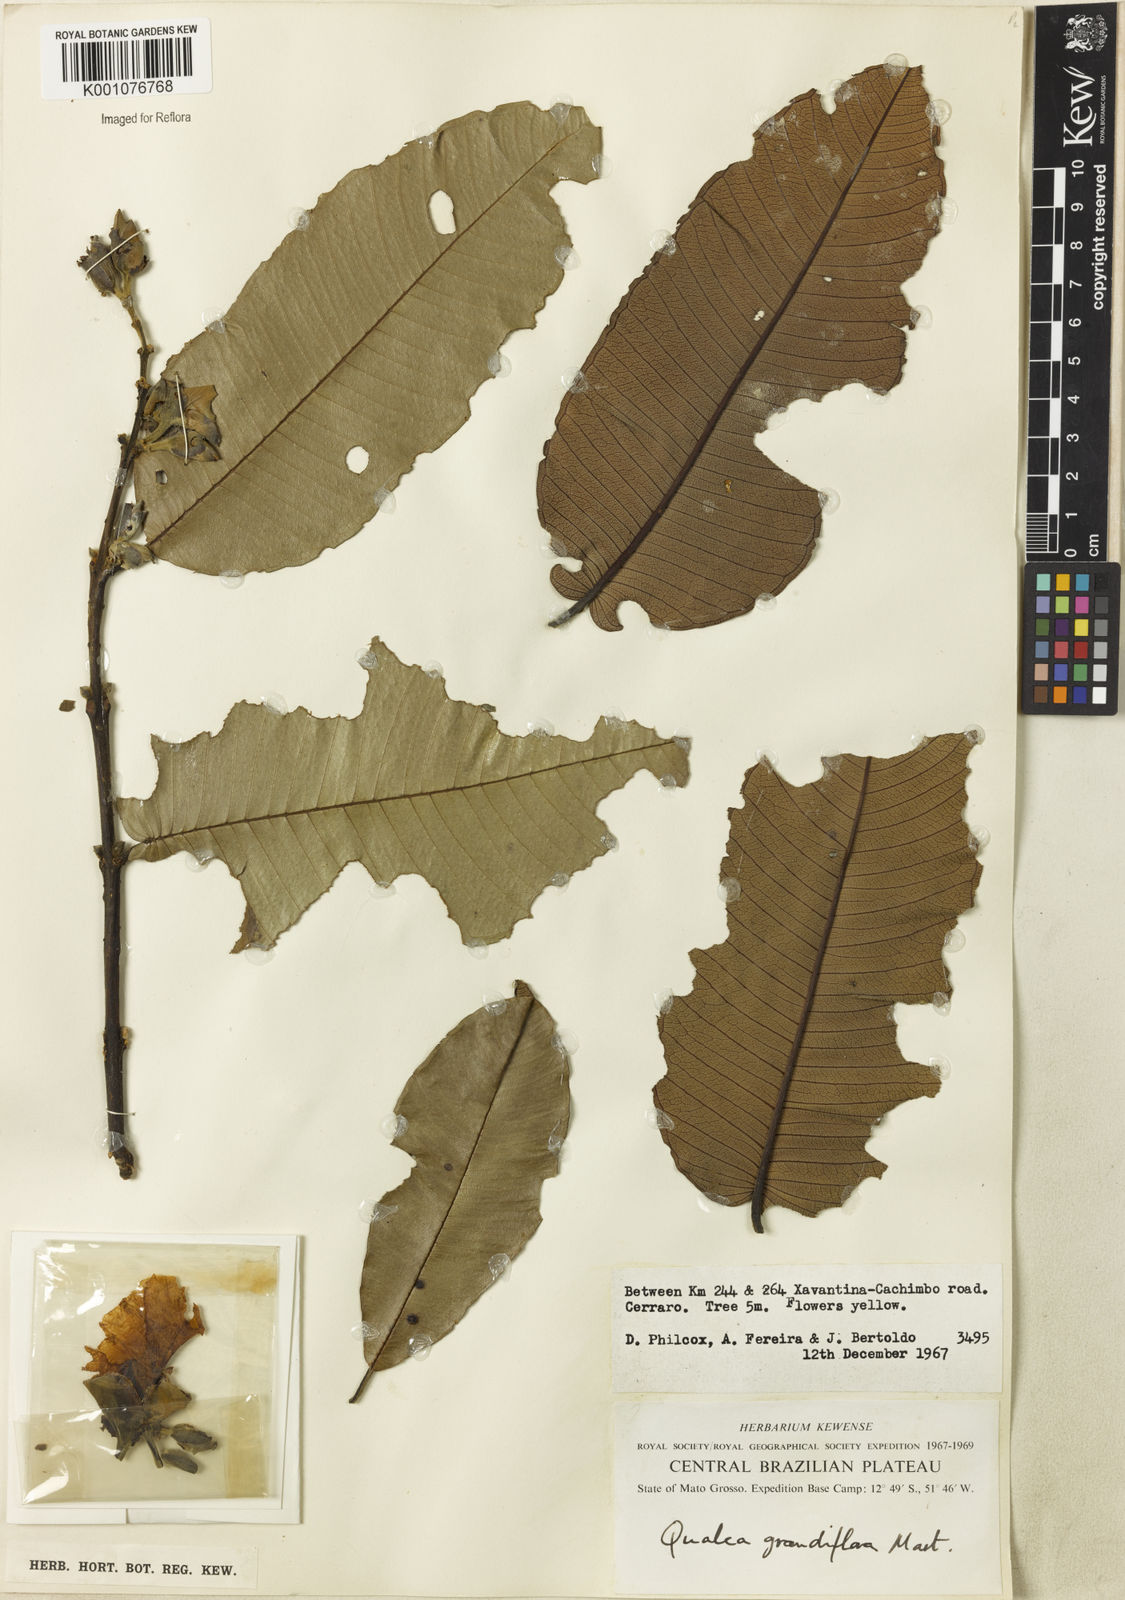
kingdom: Plantae
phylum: Tracheophyta
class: Magnoliopsida
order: Myrtales
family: Vochysiaceae
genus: Qualea
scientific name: Qualea grandiflora
